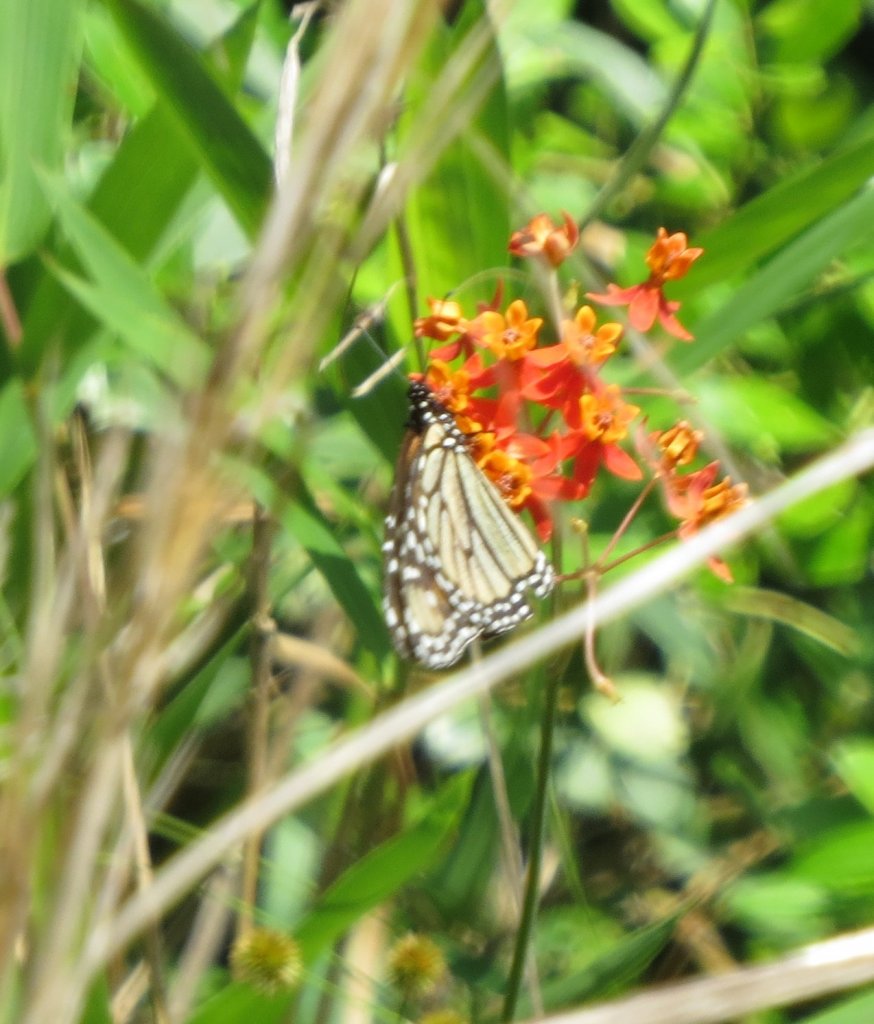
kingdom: Animalia
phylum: Arthropoda
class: Insecta
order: Lepidoptera
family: Nymphalidae
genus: Danaus
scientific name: Danaus plexippus
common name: Monarch
